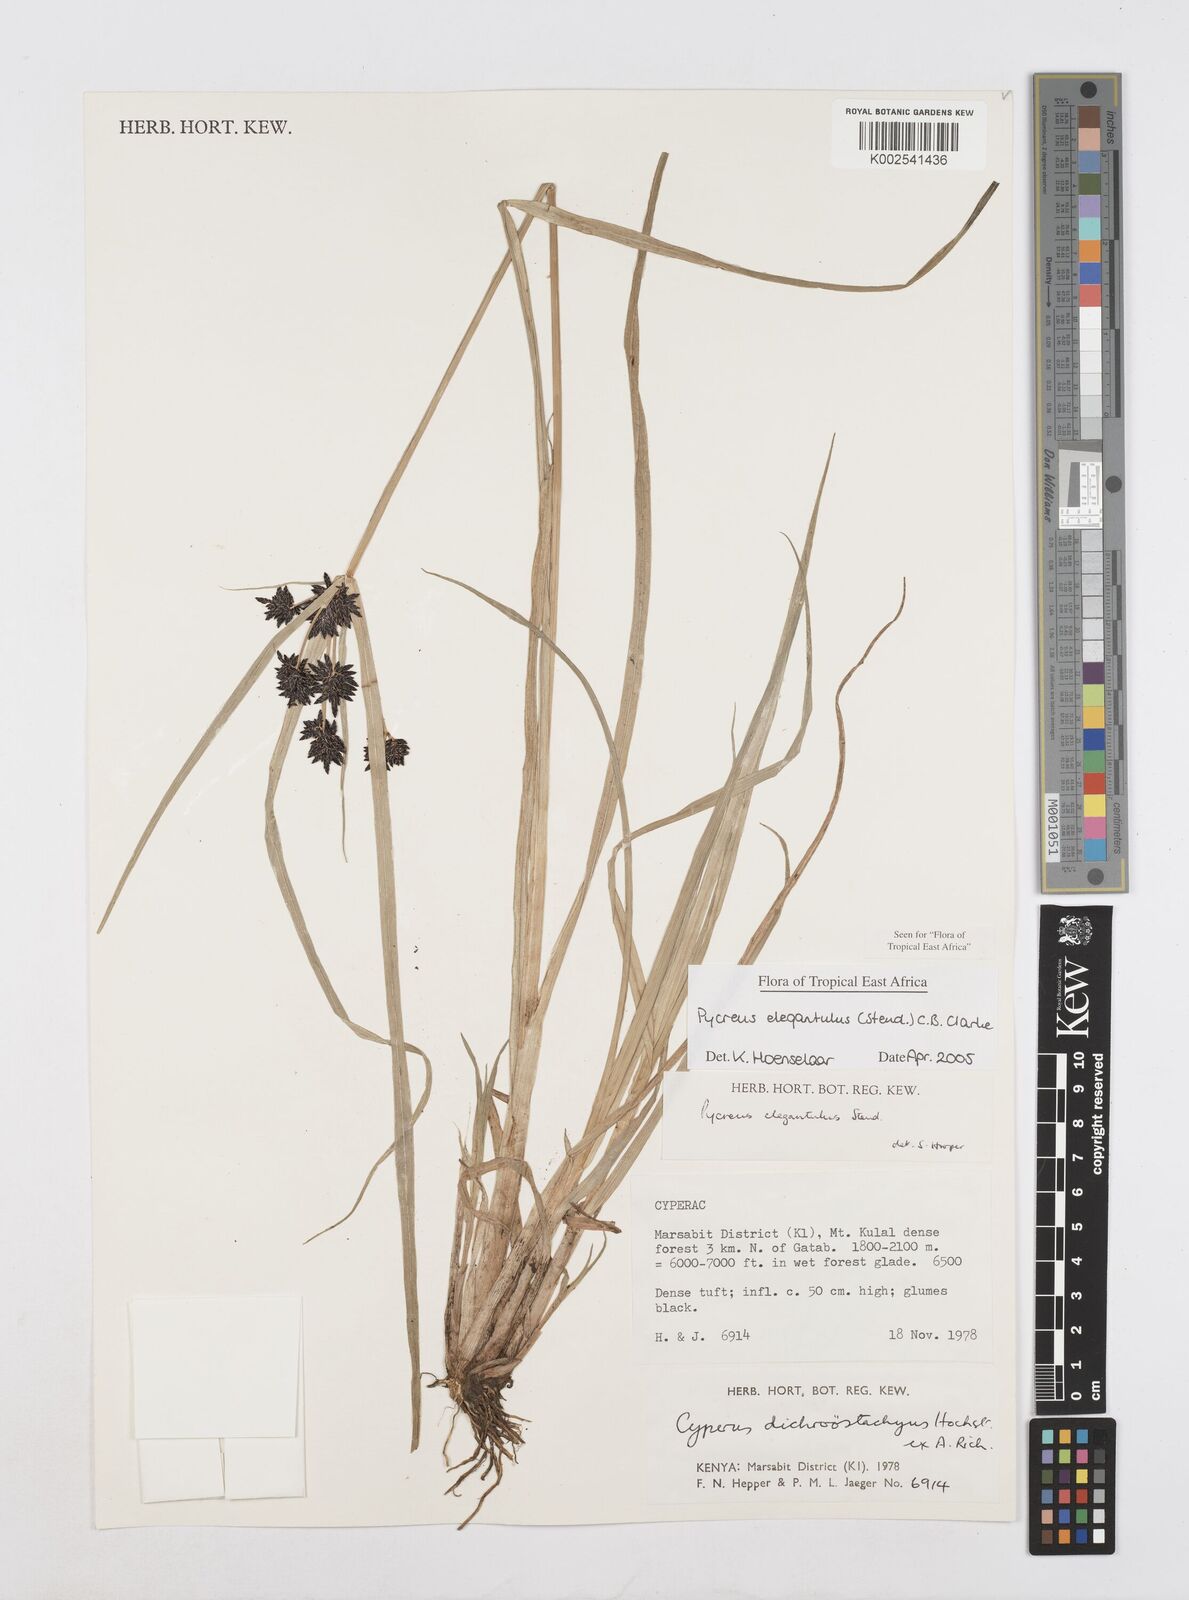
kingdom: Plantae
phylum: Tracheophyta
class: Liliopsida
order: Poales
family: Cyperaceae
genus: Cyperus
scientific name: Cyperus elegantulus
